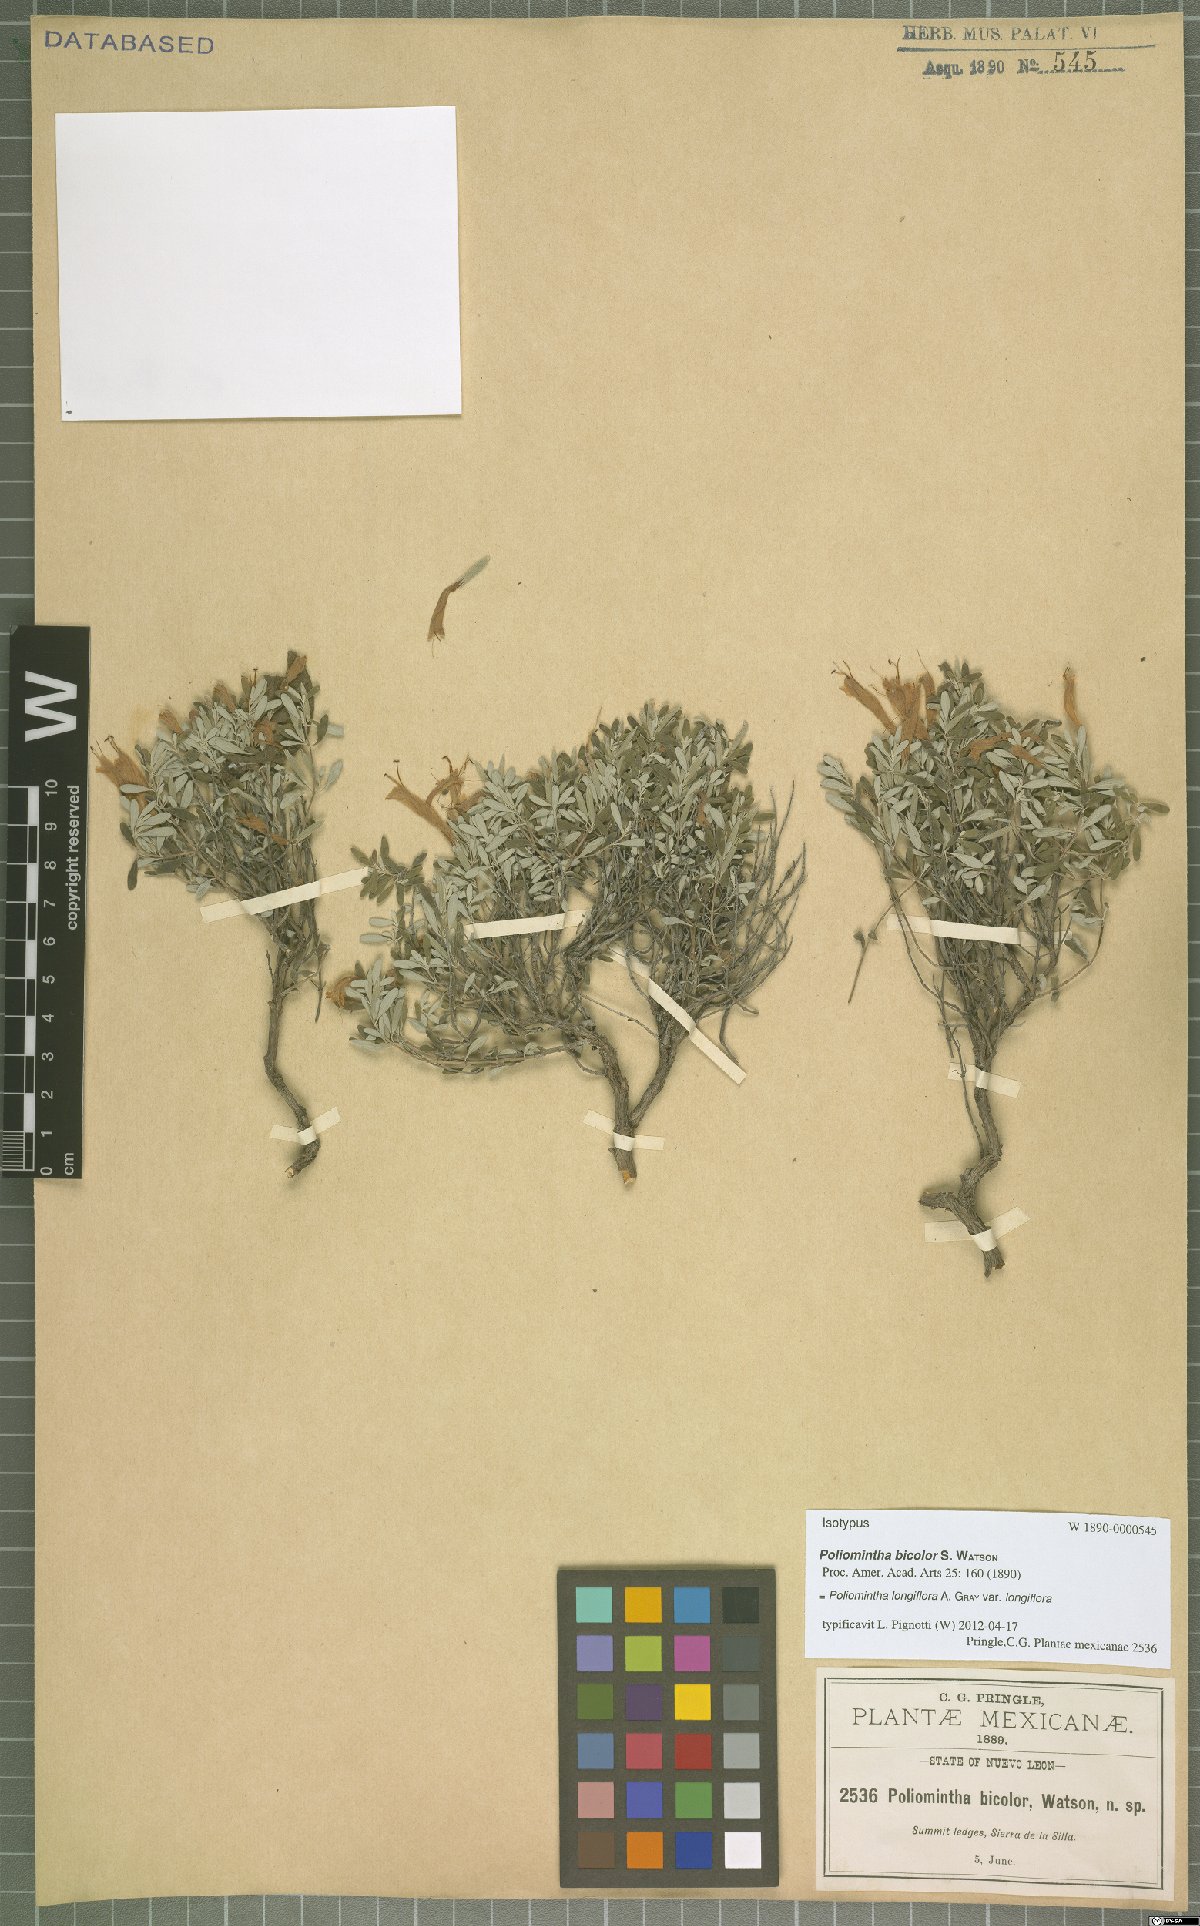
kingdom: Plantae
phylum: Tracheophyta
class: Magnoliopsida
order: Lamiales
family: Lamiaceae
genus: Poliomintha
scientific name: Poliomintha longiflora
